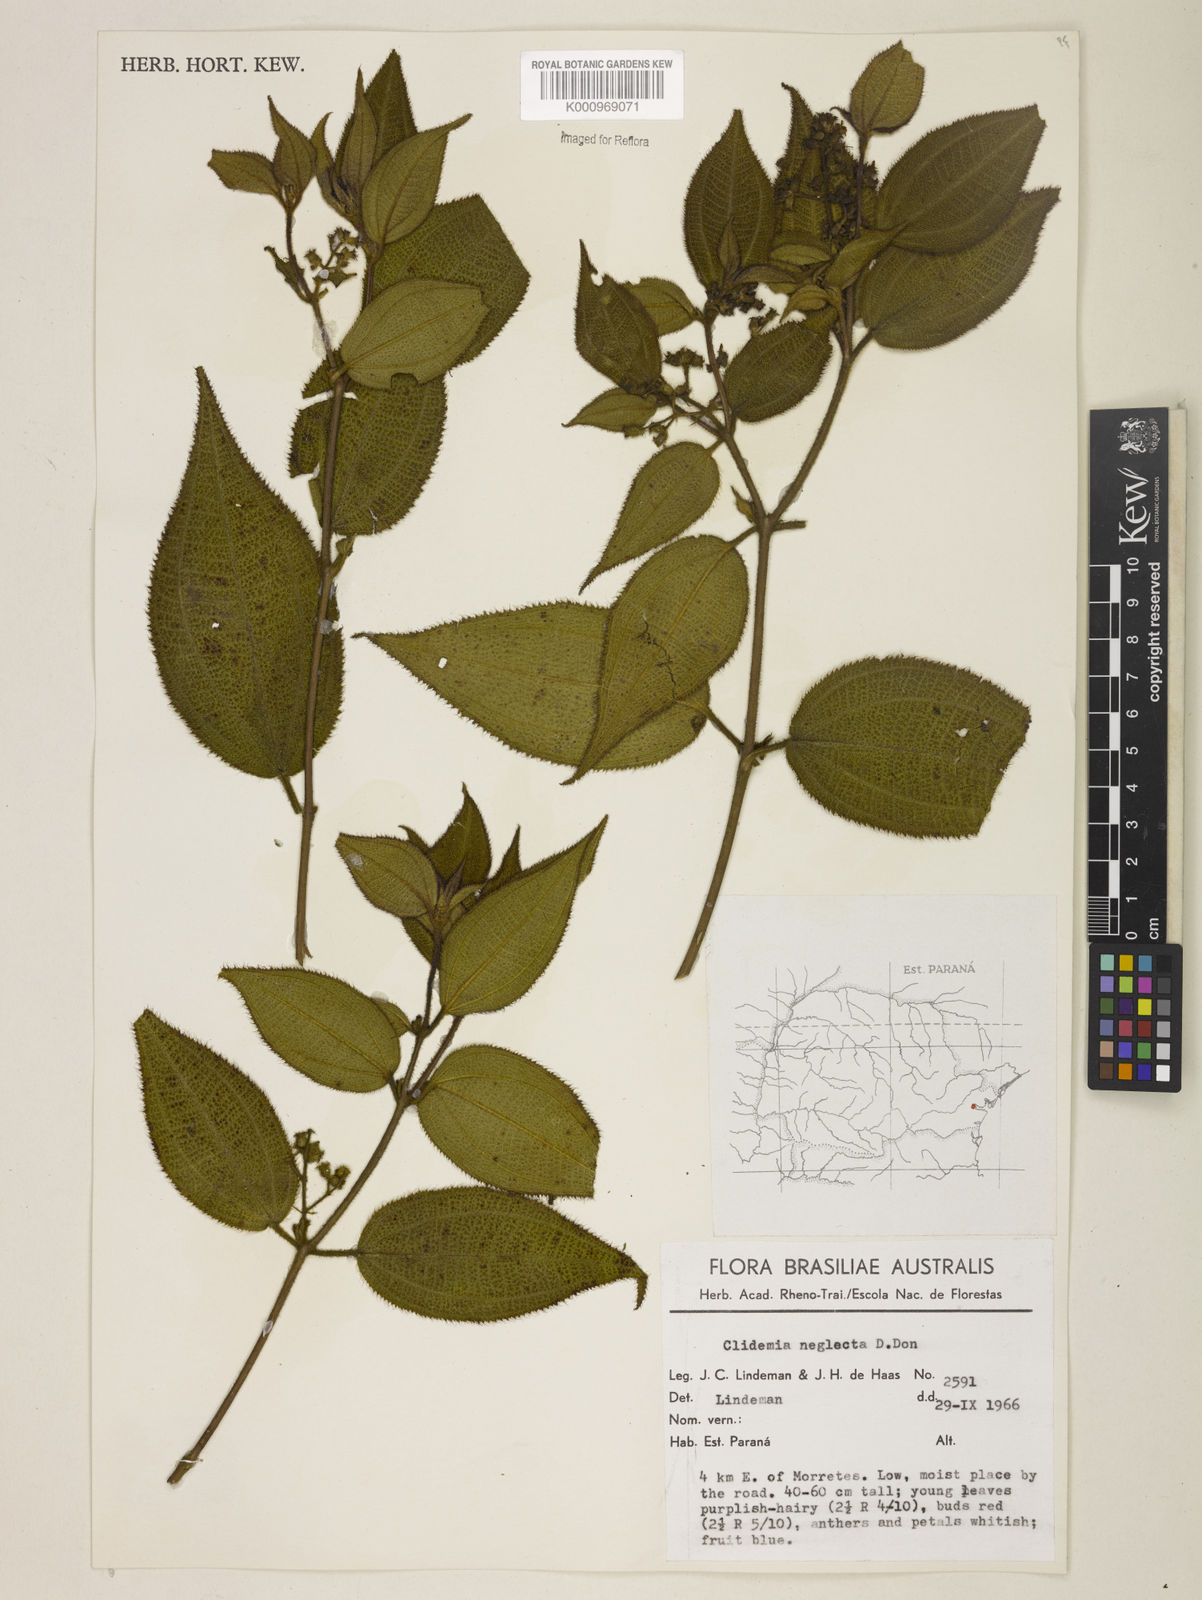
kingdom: Plantae
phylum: Tracheophyta
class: Magnoliopsida
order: Myrtales
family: Melastomataceae
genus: Miconia
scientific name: Miconia dependens
